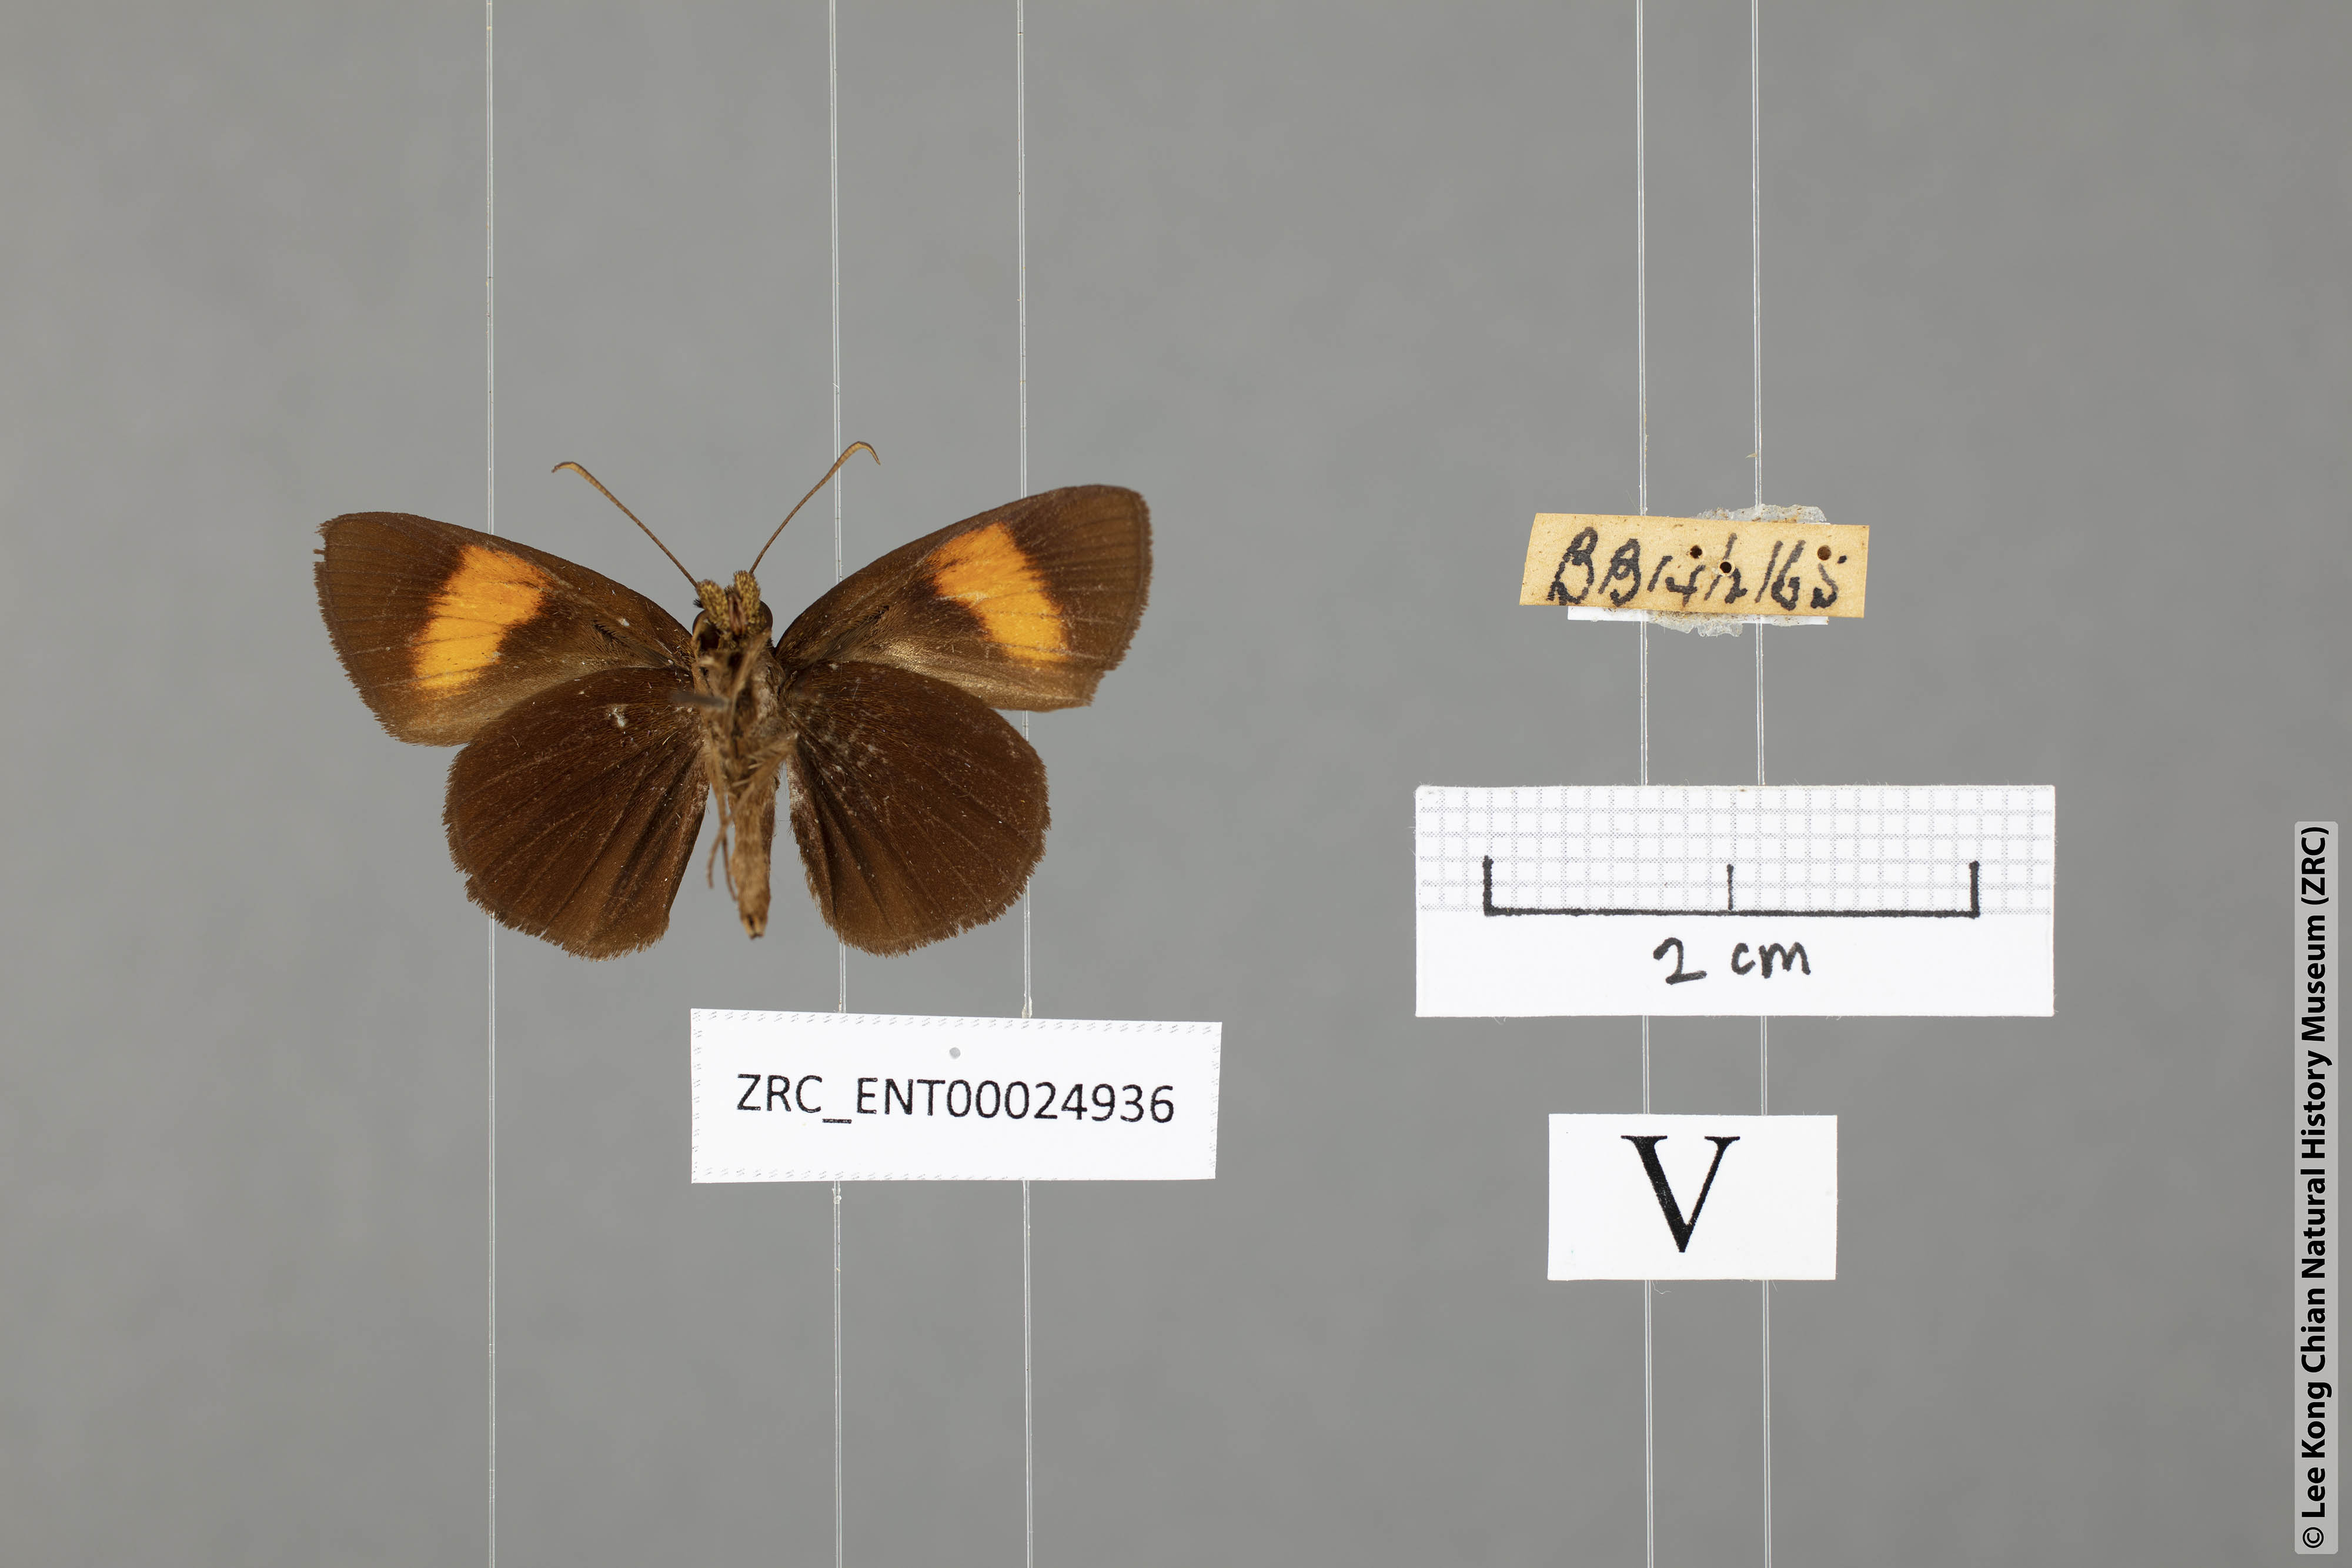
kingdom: Animalia
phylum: Arthropoda
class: Insecta
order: Lepidoptera
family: Hesperiidae
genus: Koruthaialos
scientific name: Koruthaialos rubecula
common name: Narrow-banded velvet bob
